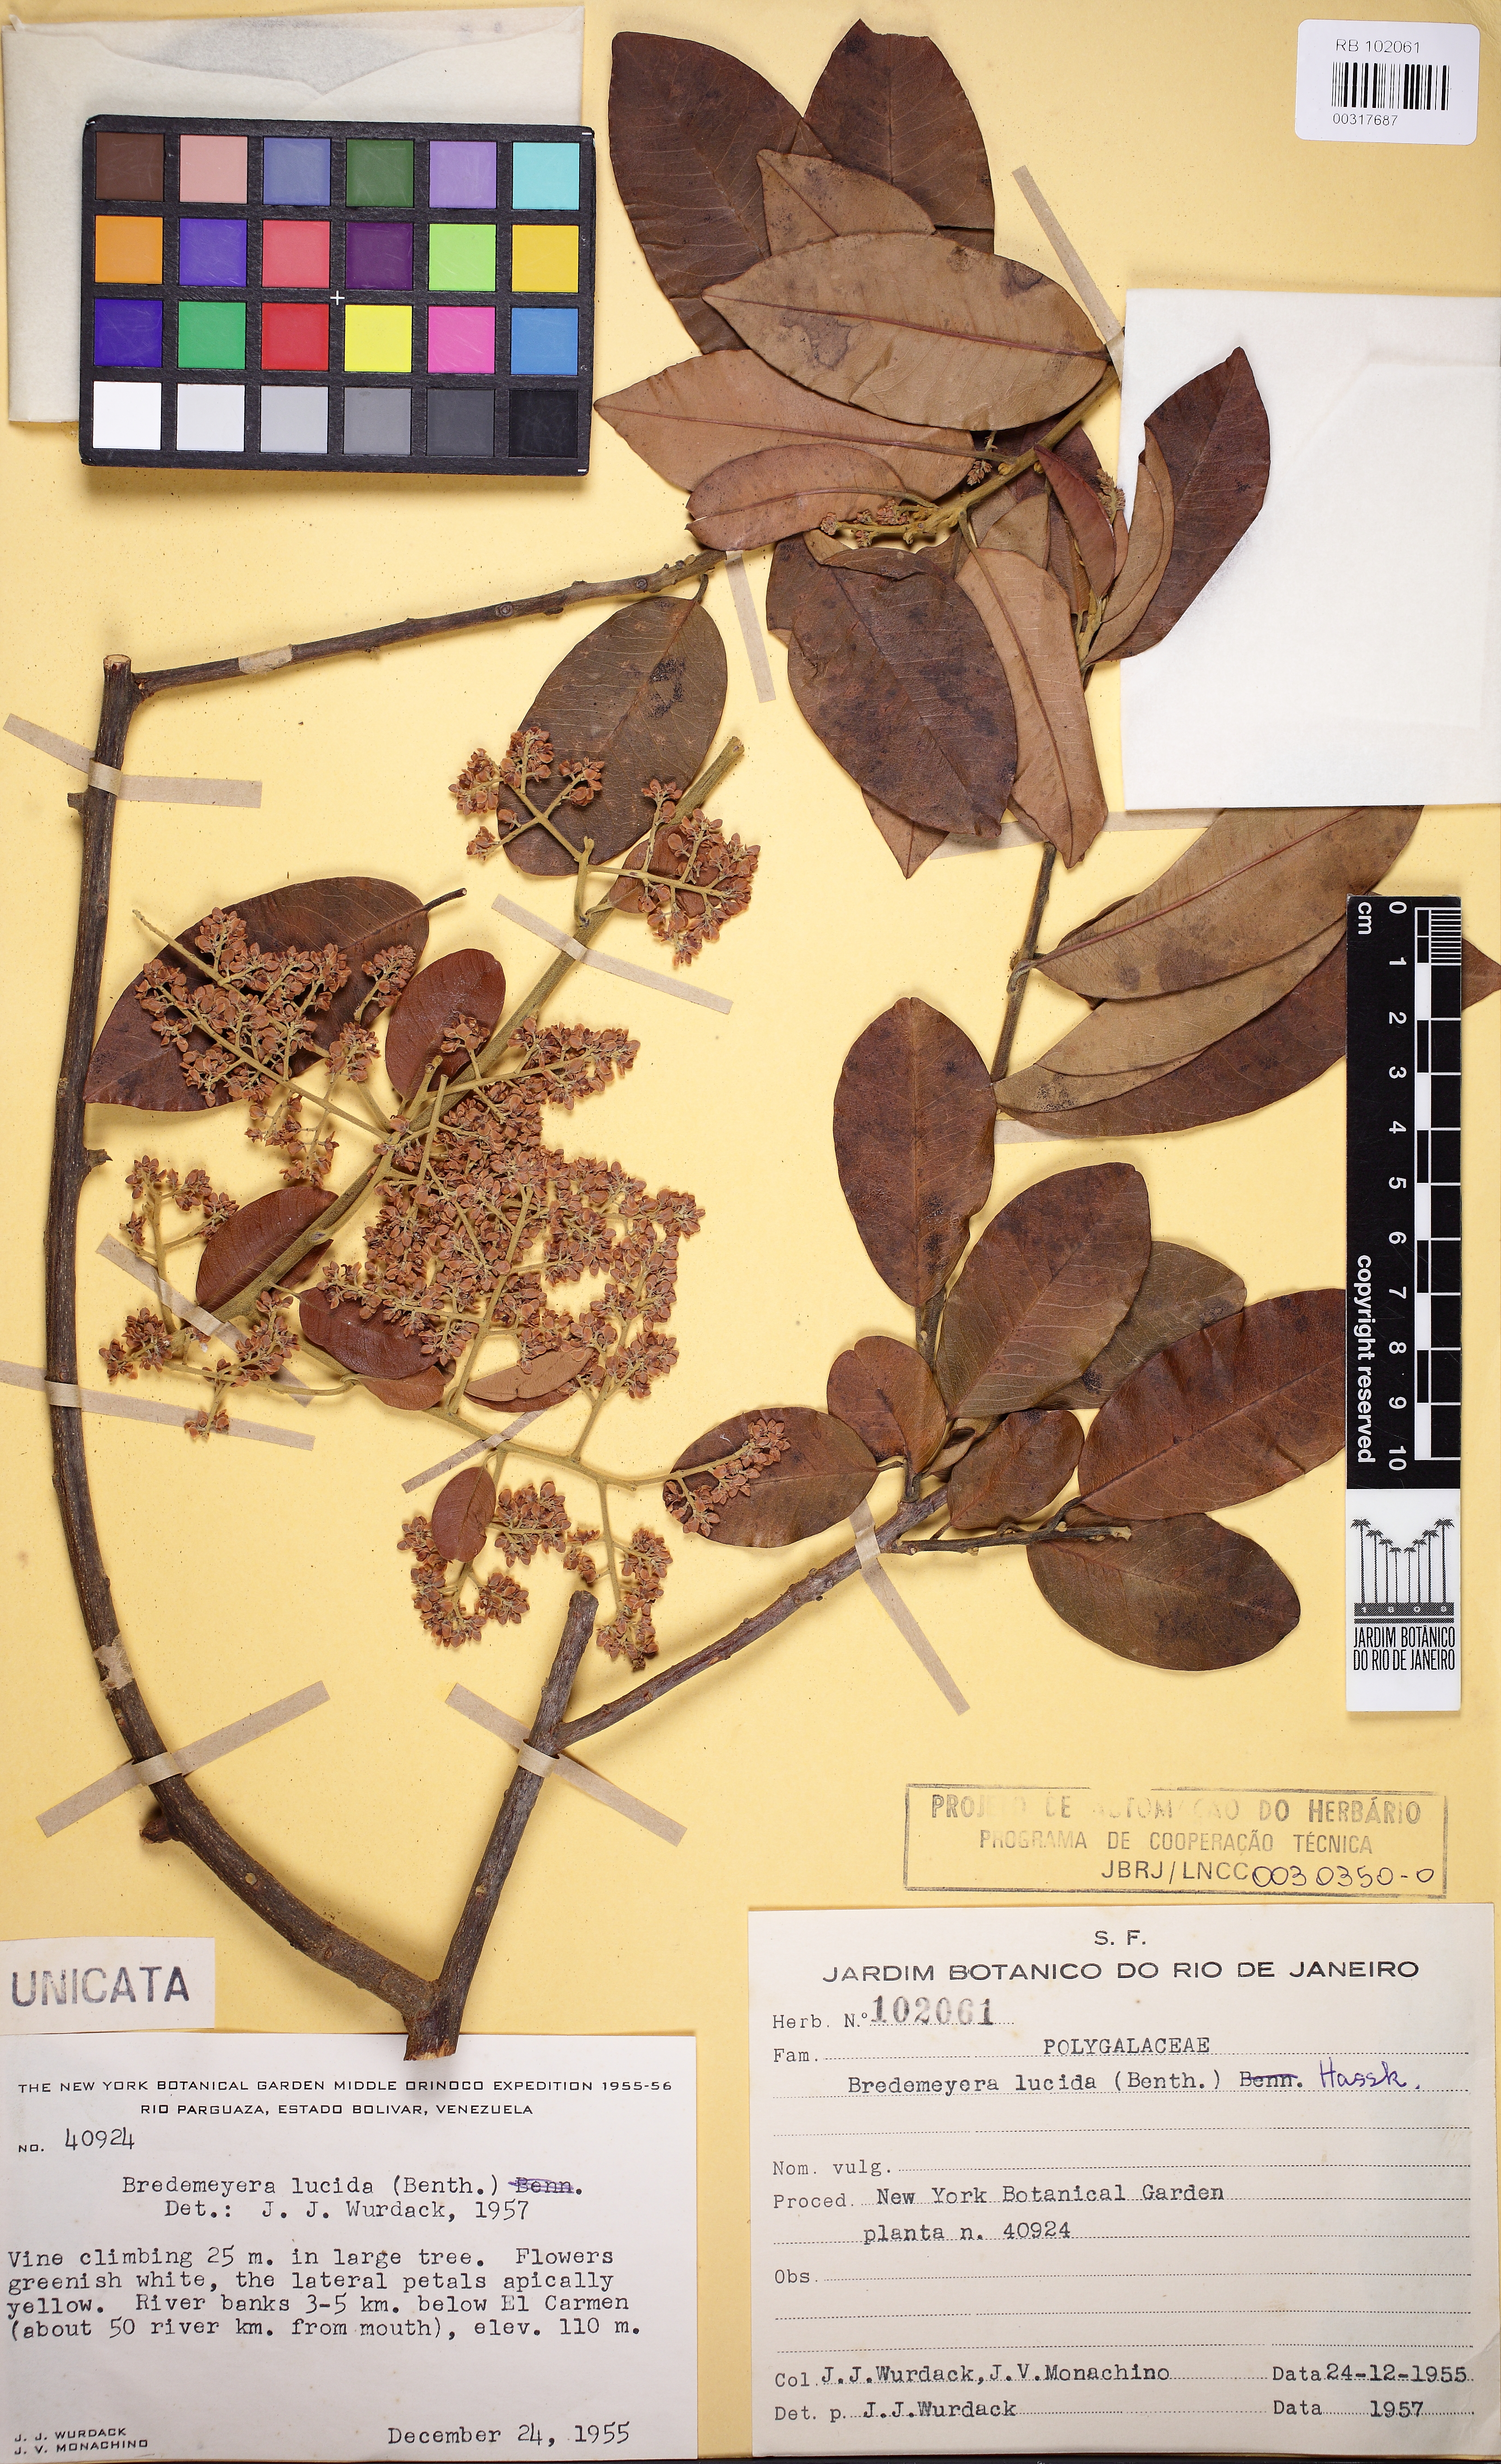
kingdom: Plantae
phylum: Tracheophyta
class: Magnoliopsida
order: Fabales
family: Polygalaceae
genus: Bredemeyera
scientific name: Bredemeyera lucida
